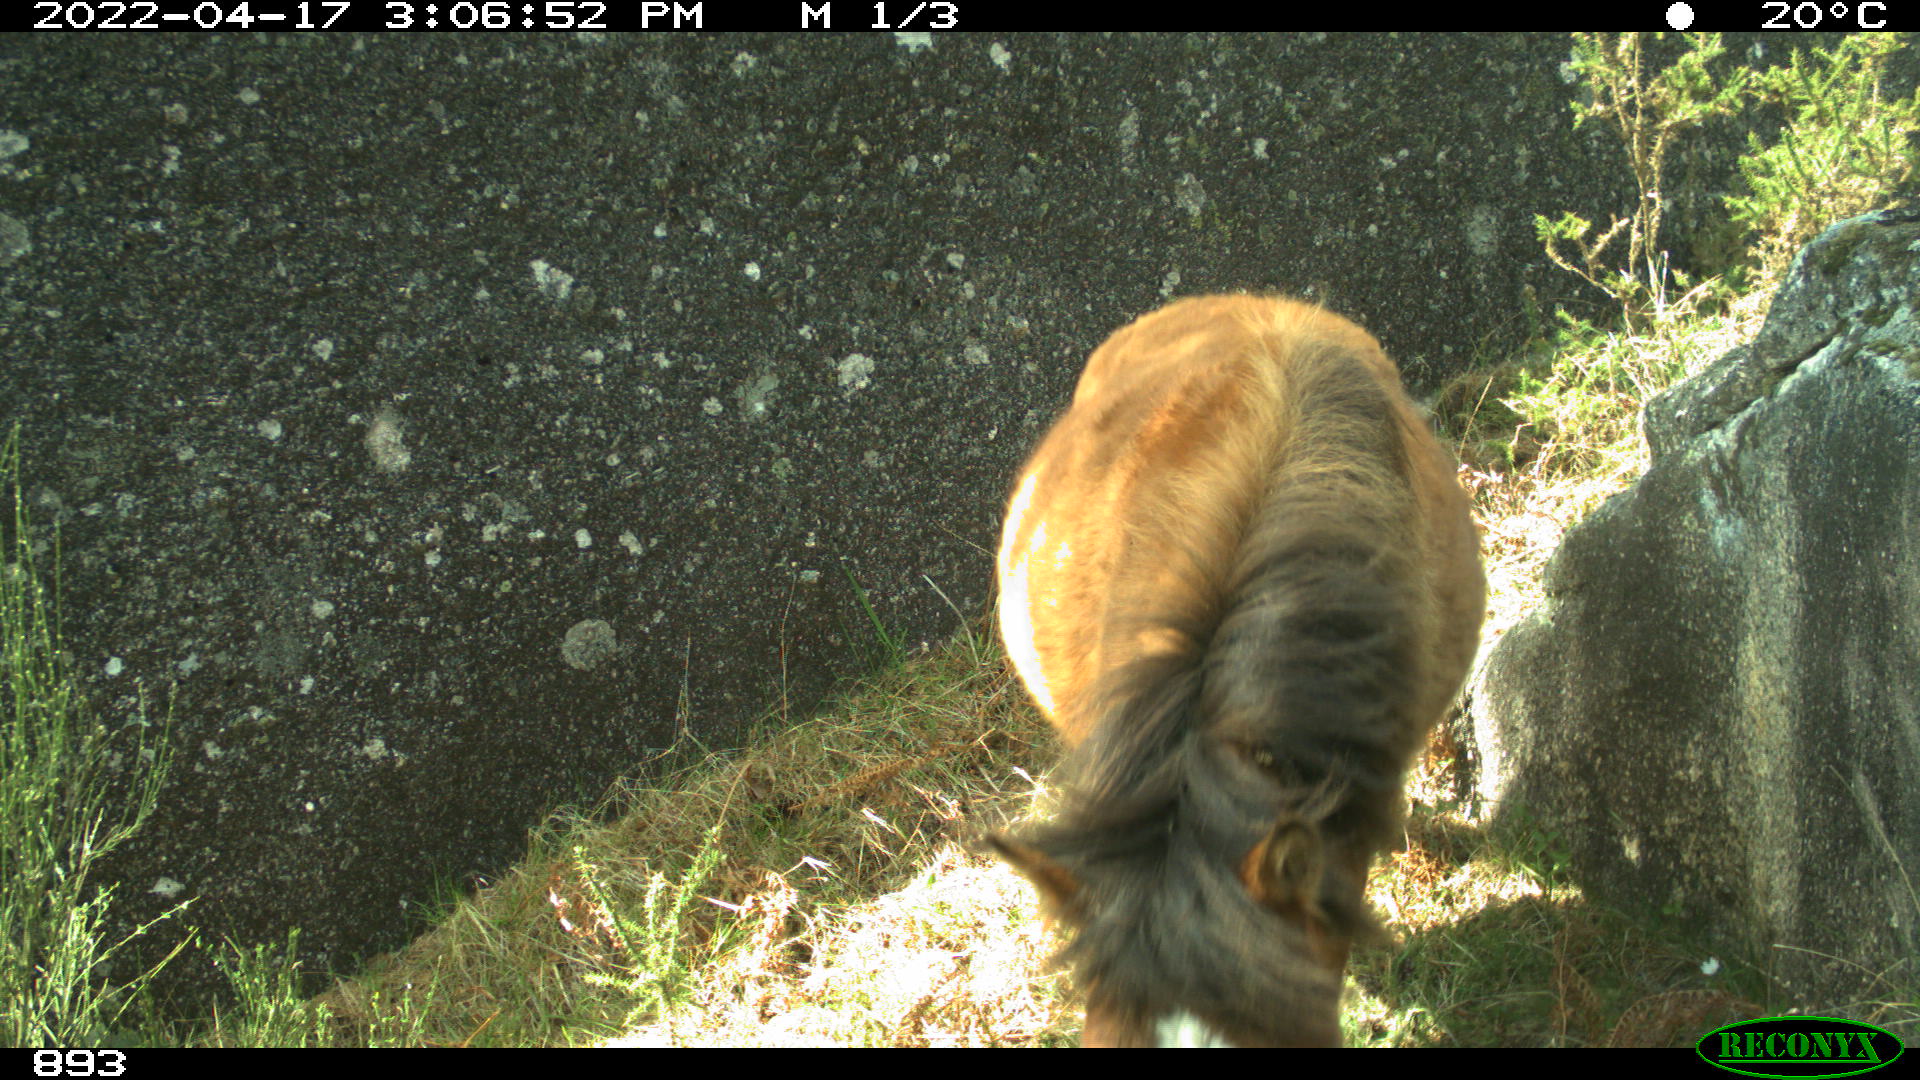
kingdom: Animalia
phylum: Chordata
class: Mammalia
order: Perissodactyla
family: Equidae
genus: Equus
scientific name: Equus caballus
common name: Horse
